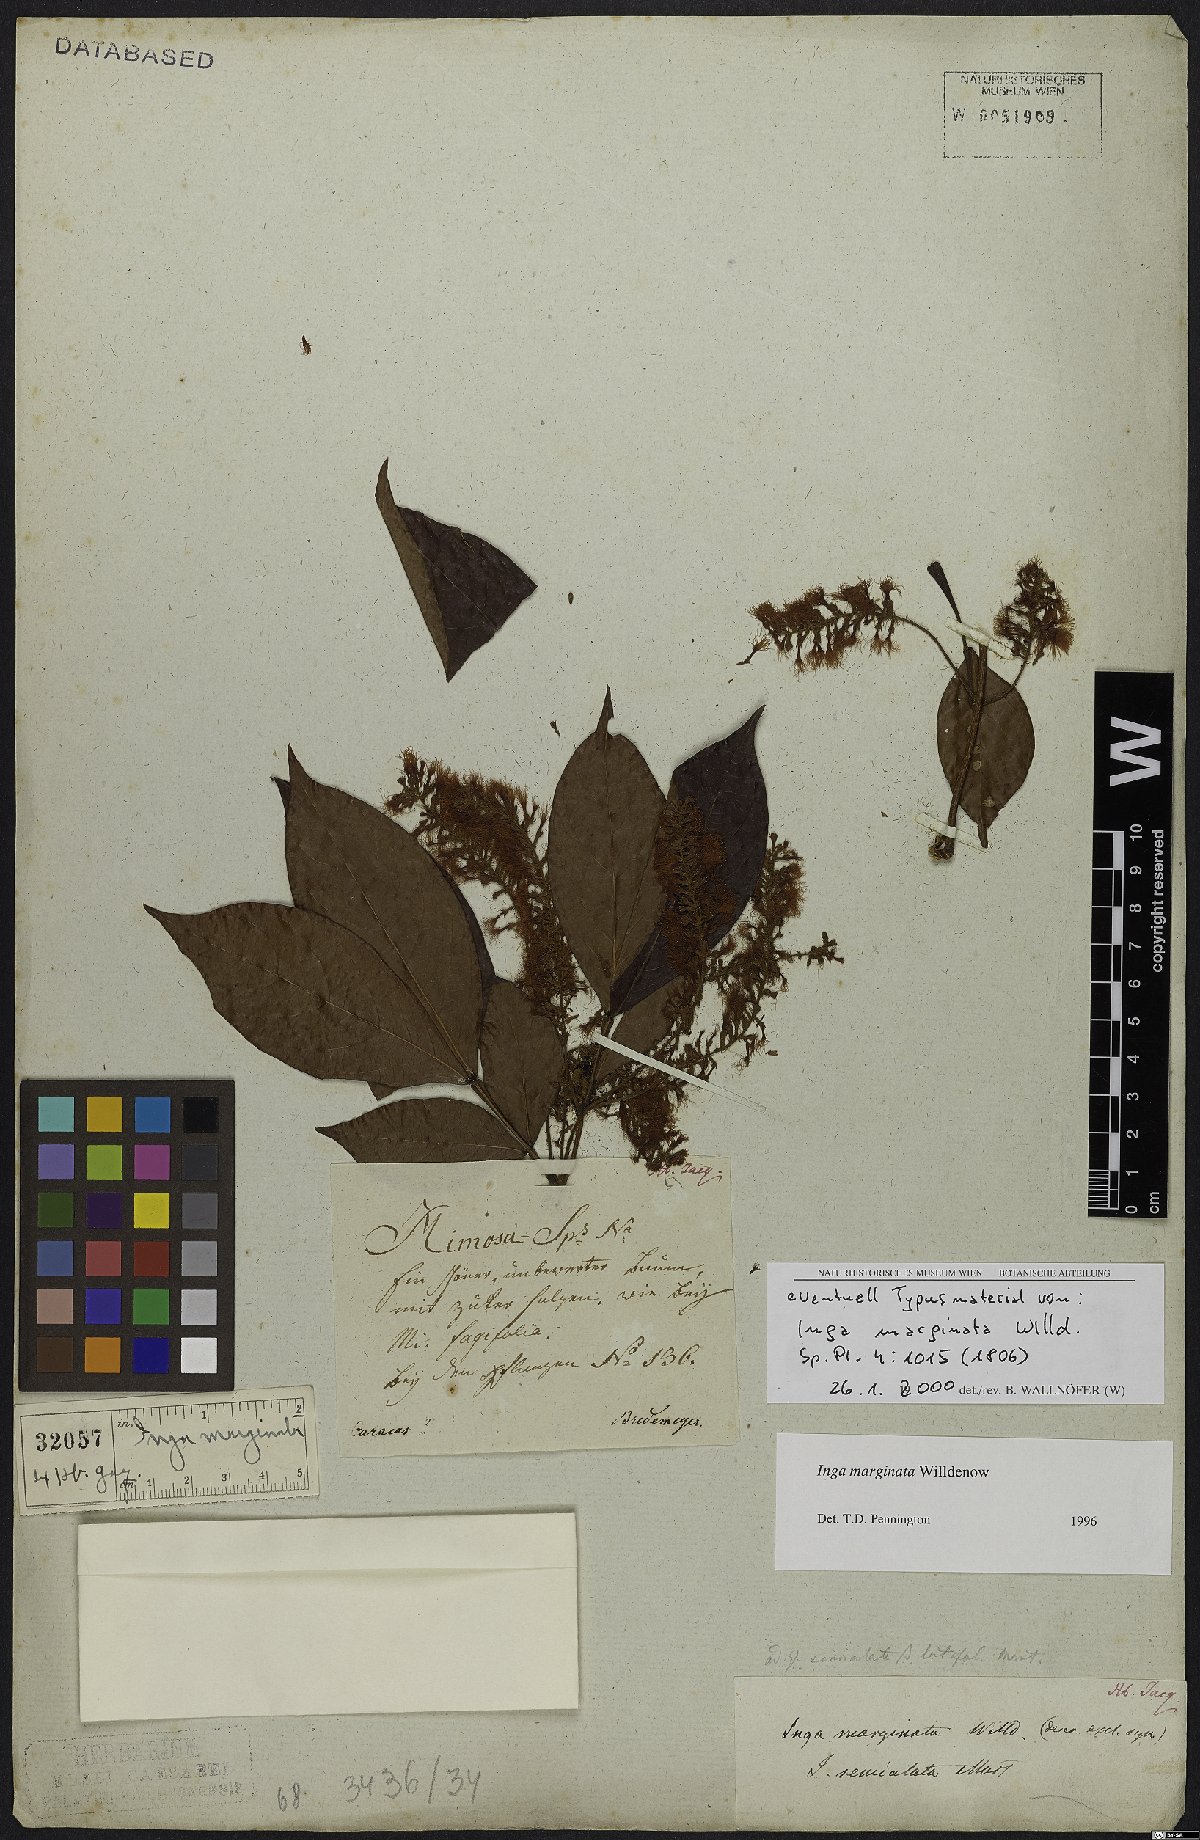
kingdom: Plantae
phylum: Tracheophyta
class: Magnoliopsida
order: Fabales
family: Fabaceae
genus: Inga
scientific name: Inga marginata
